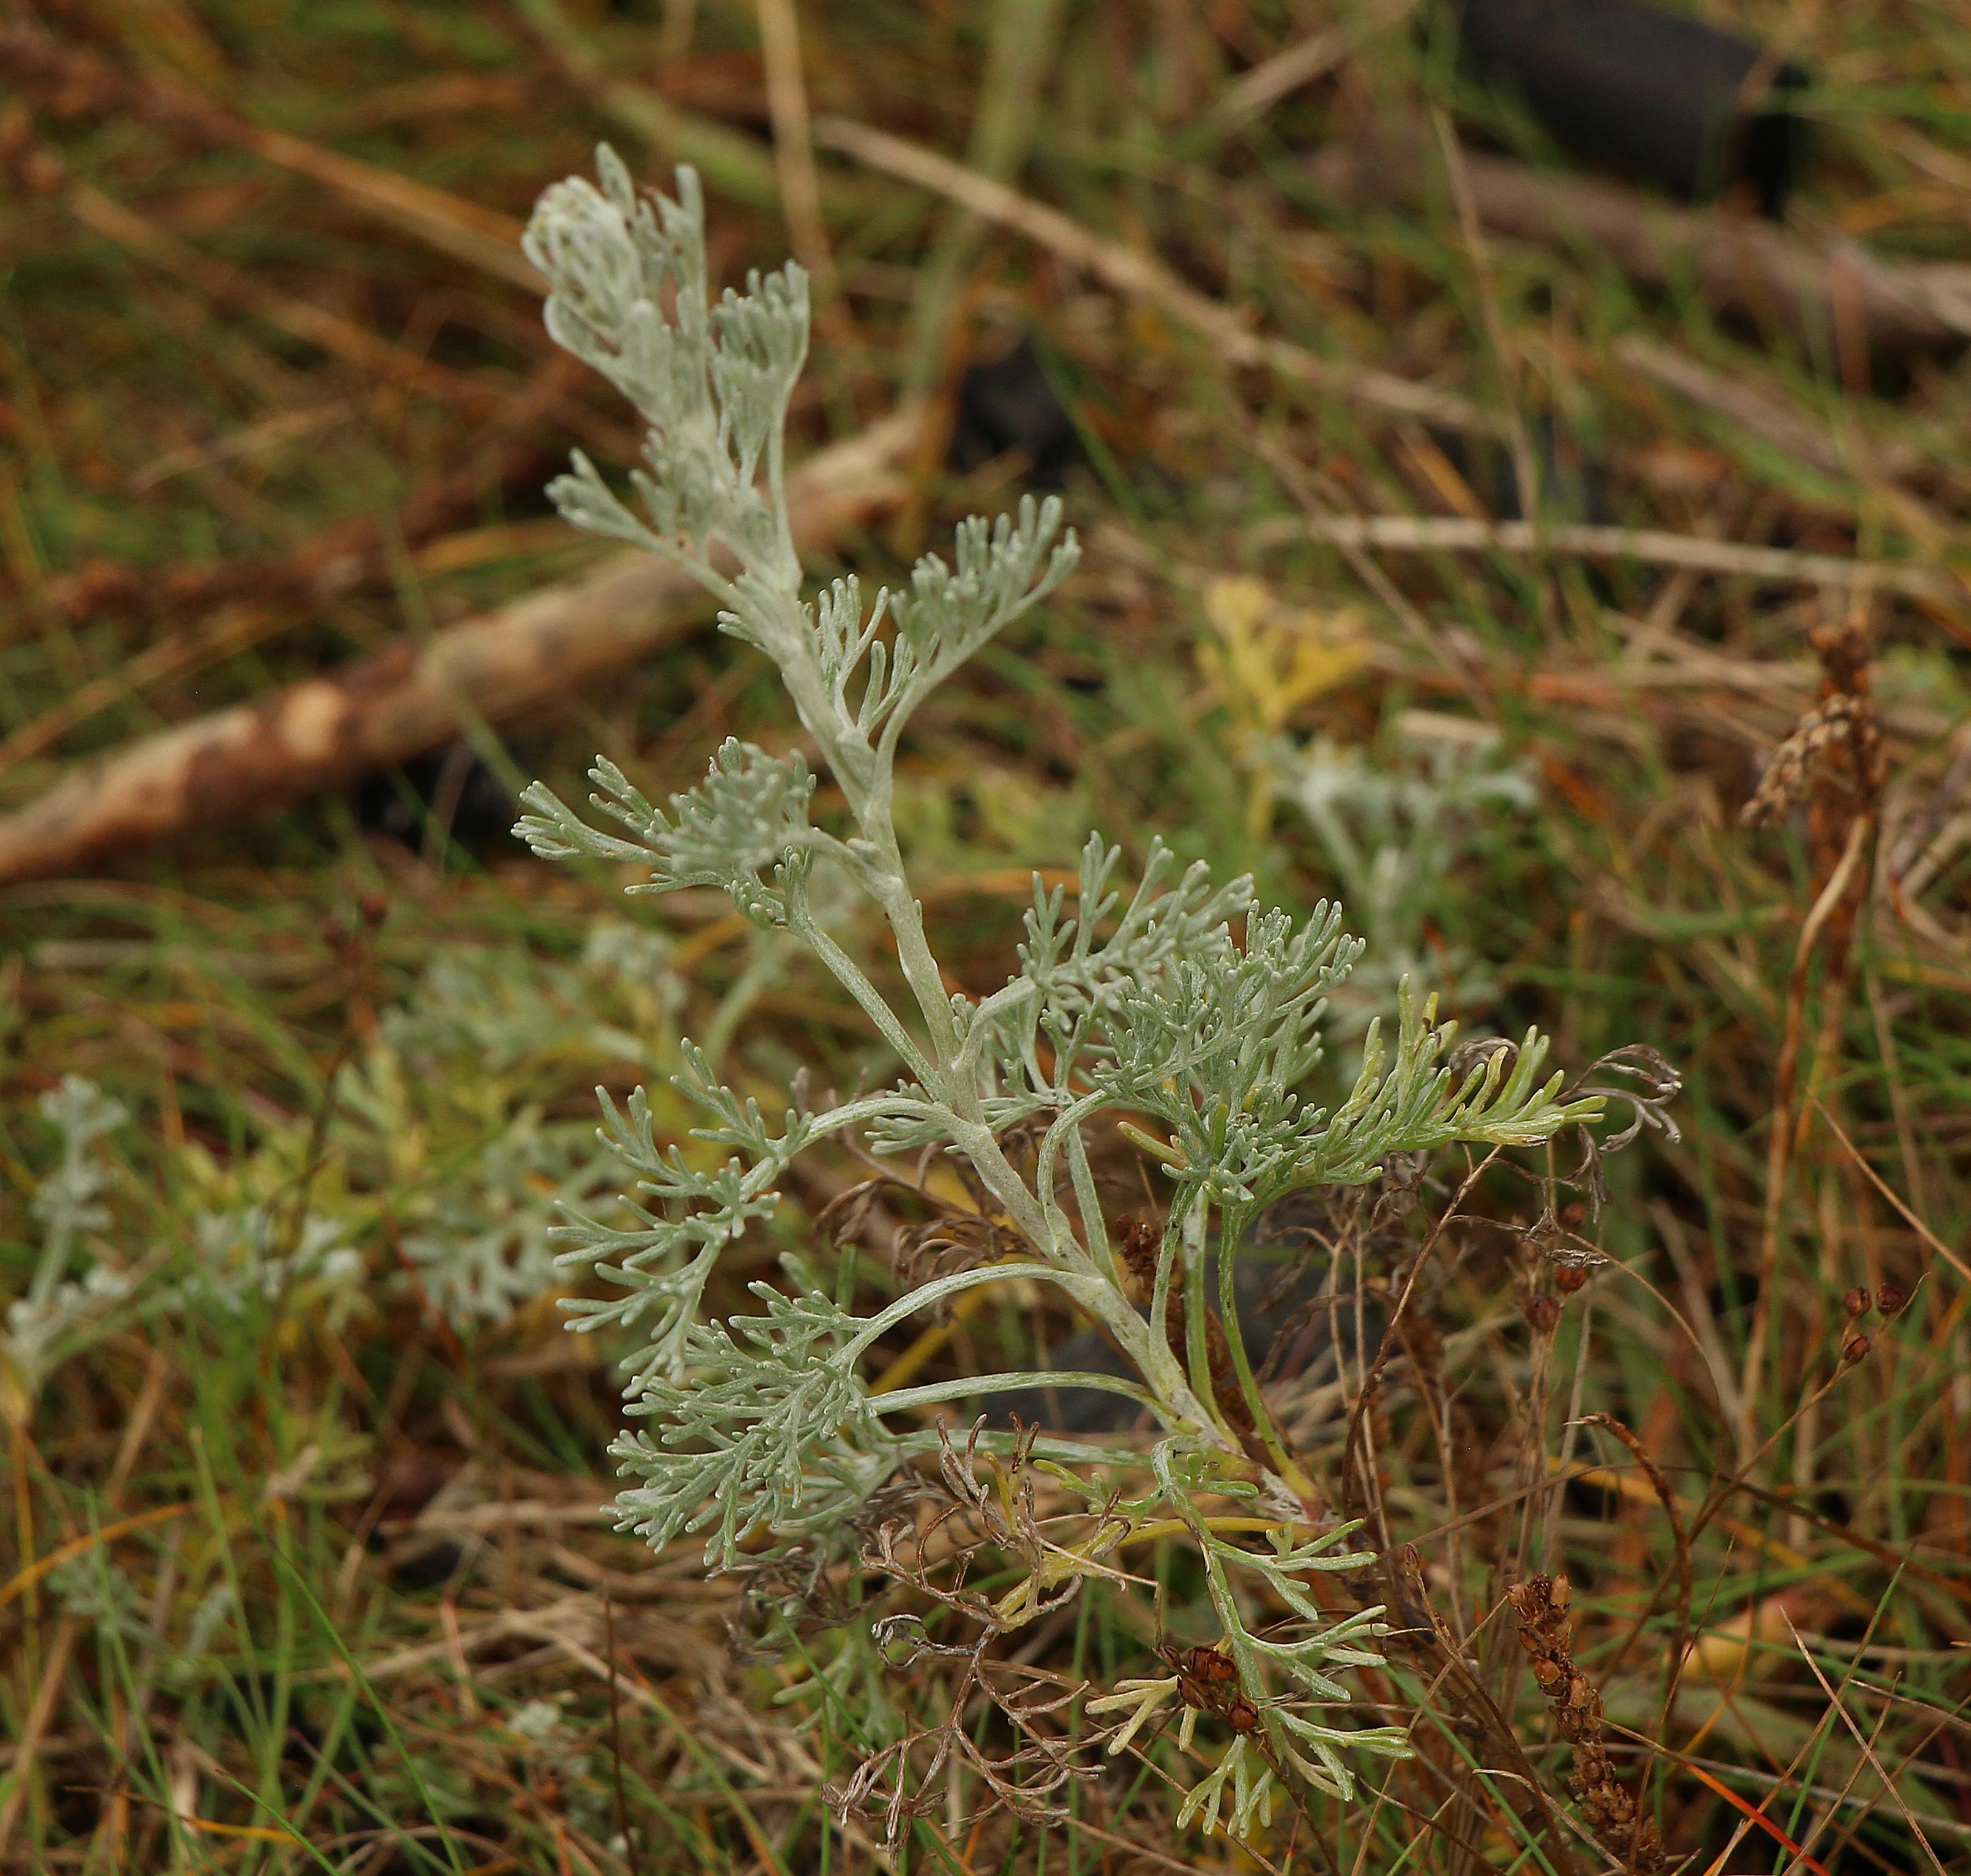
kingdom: Plantae
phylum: Tracheophyta
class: Magnoliopsida
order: Asterales
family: Asteraceae
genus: Artemisia
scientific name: Artemisia maritima
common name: Strandmalurt
